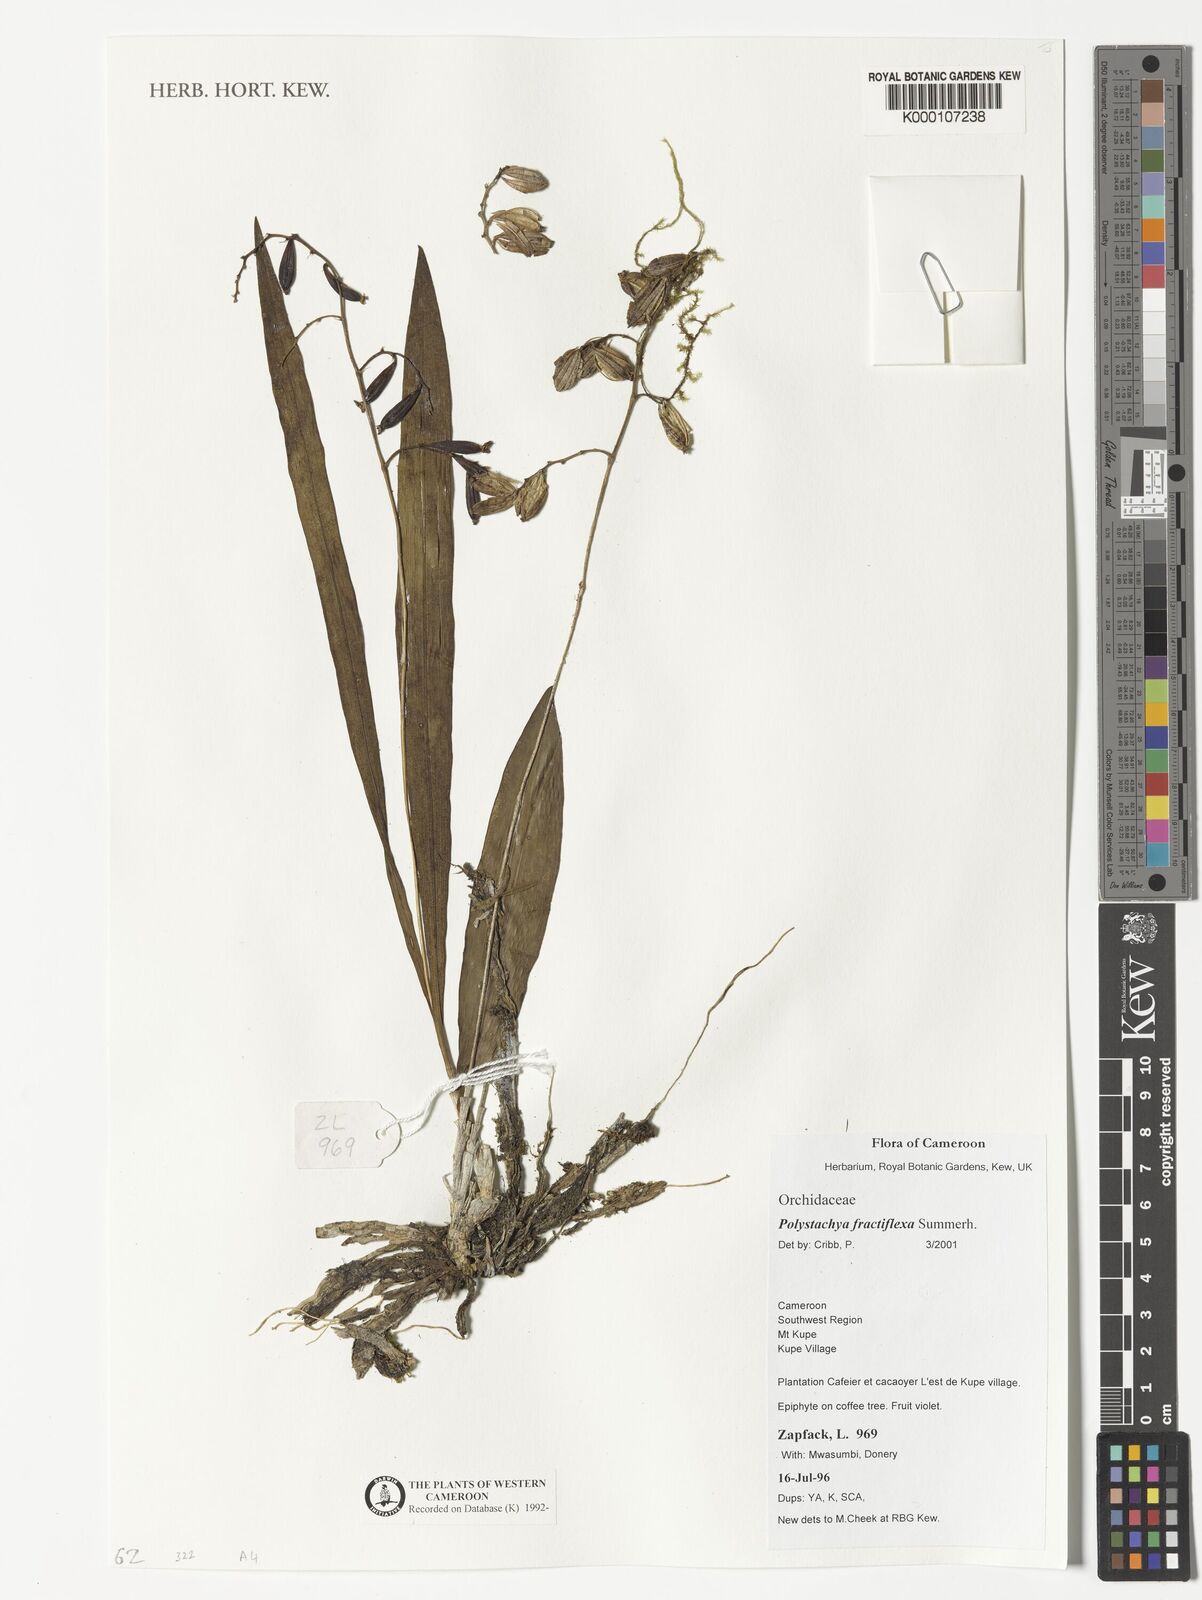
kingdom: Plantae
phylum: Tracheophyta
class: Liliopsida
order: Asparagales
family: Orchidaceae
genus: Polystachya
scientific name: Polystachya fractiflexa
